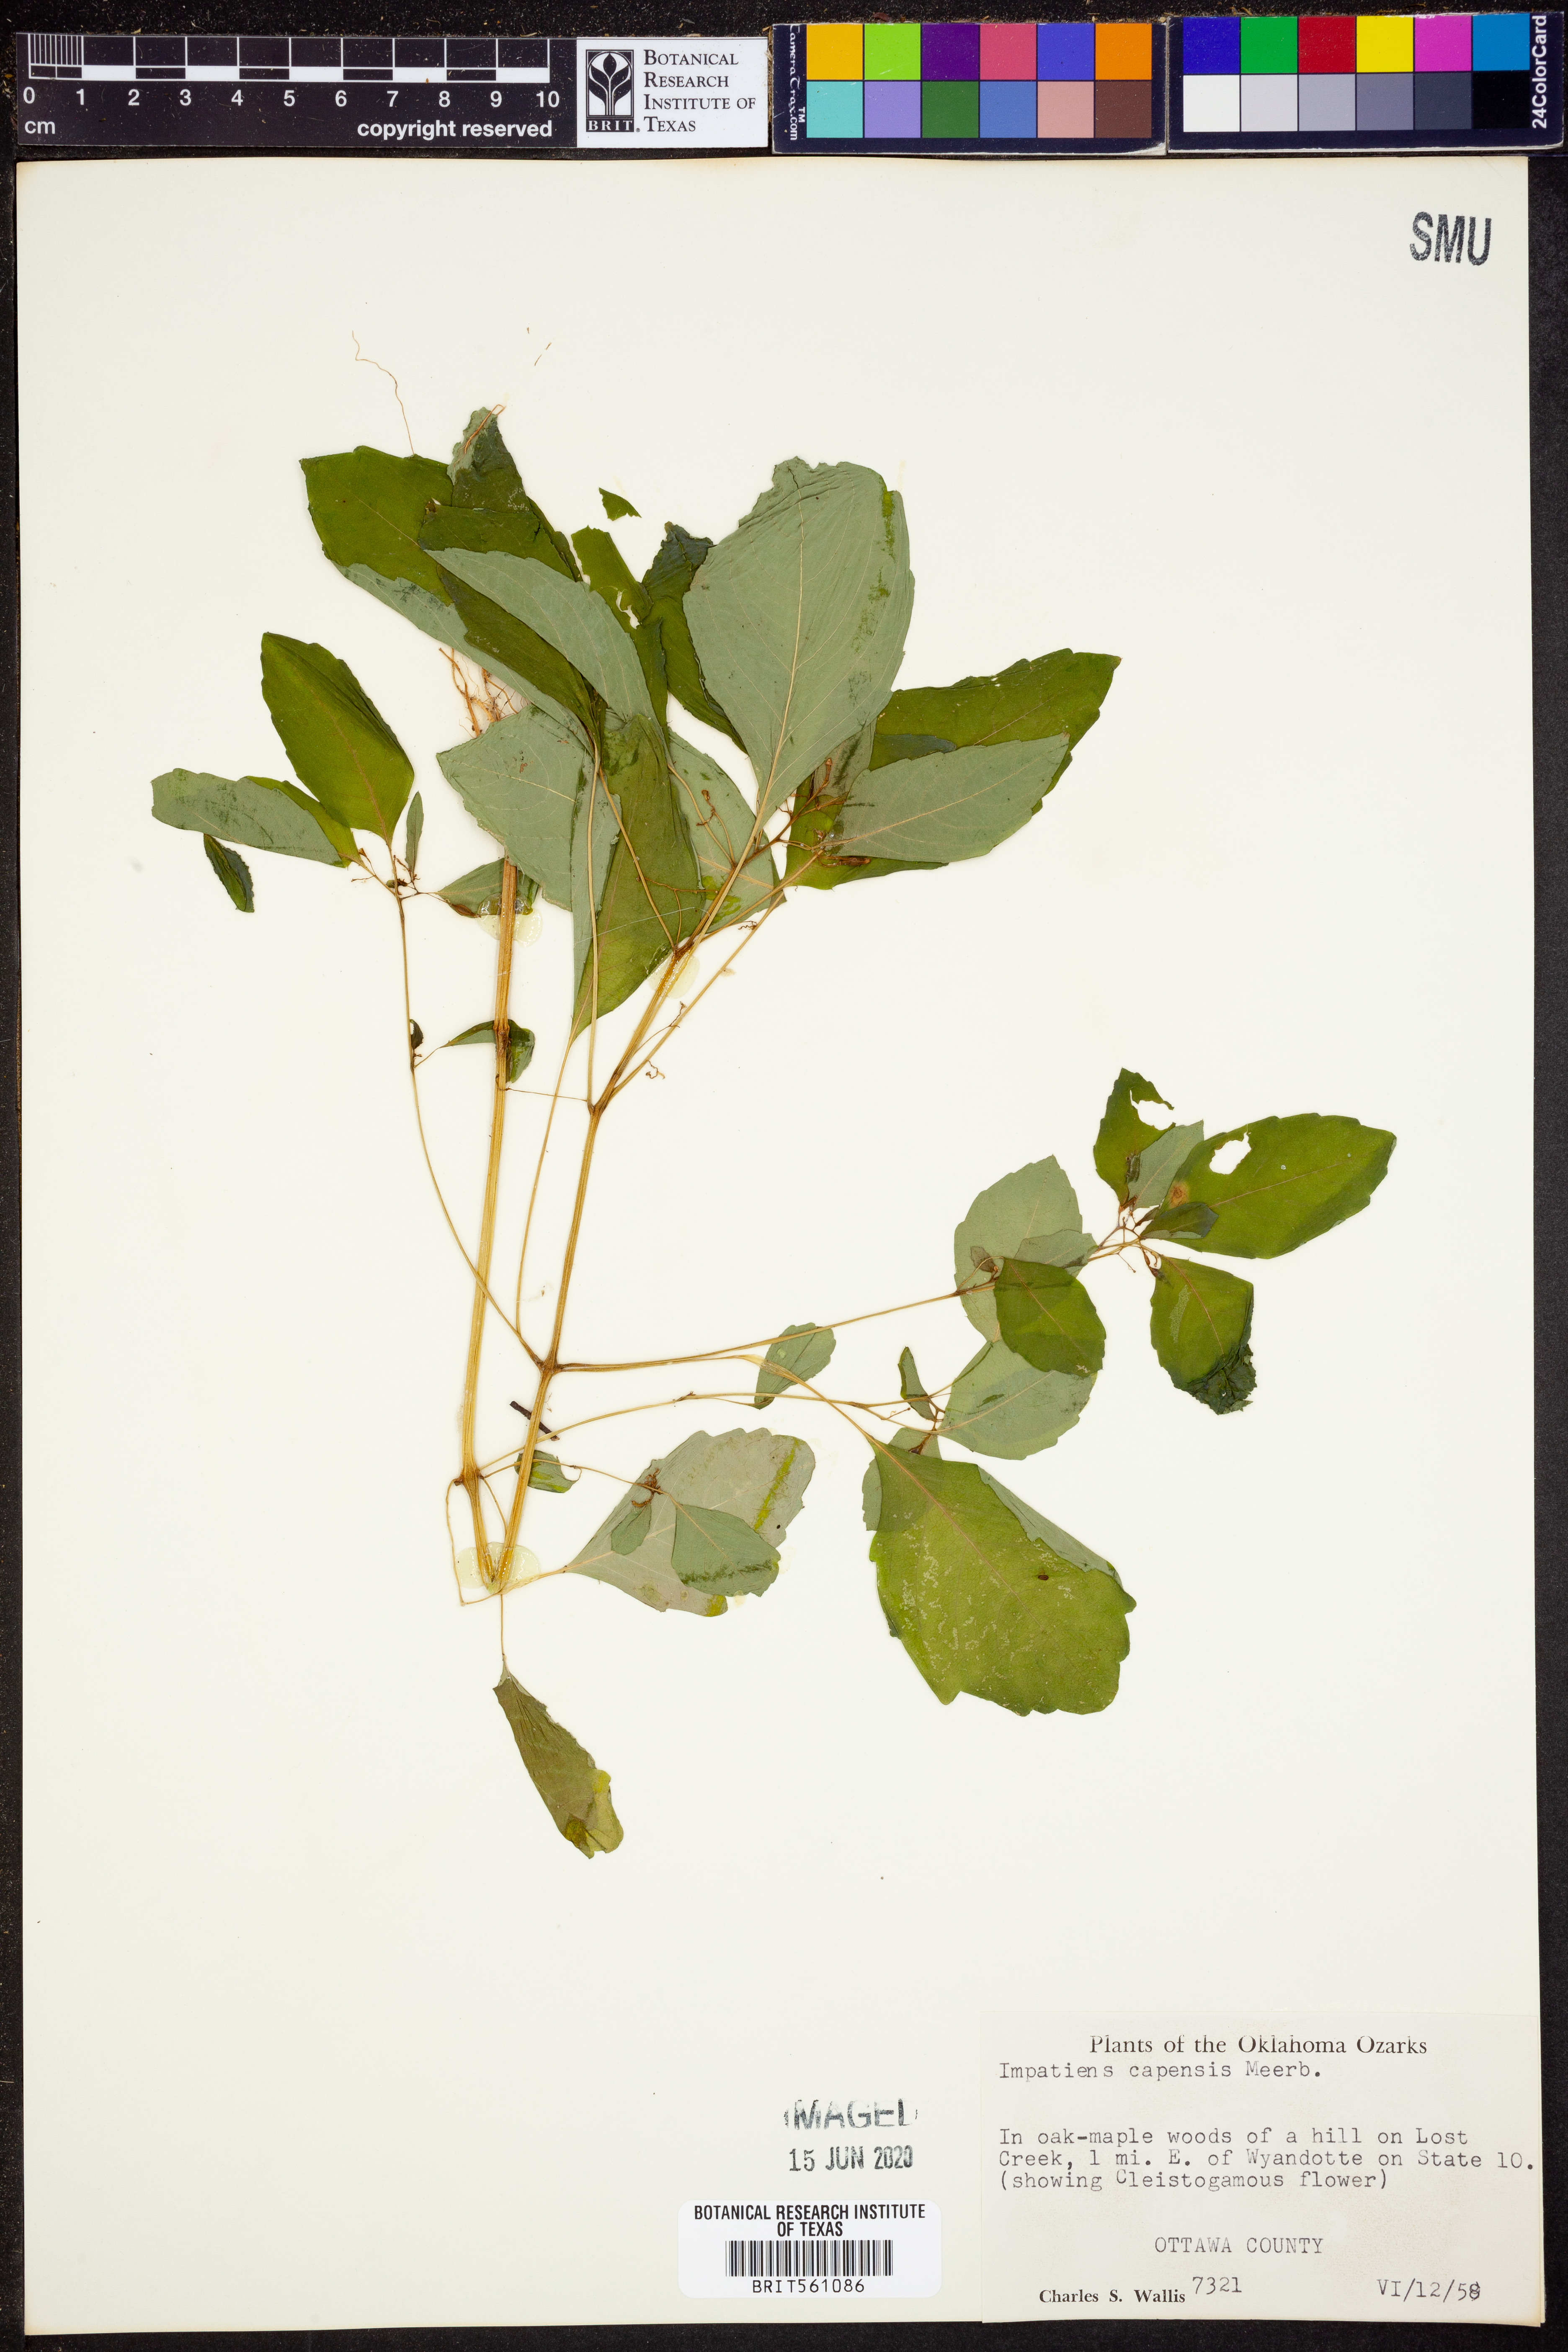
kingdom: Plantae
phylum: Tracheophyta
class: Magnoliopsida
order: Ericales
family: Balsaminaceae
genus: Impatiens
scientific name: Impatiens capensis
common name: Orange balsam
